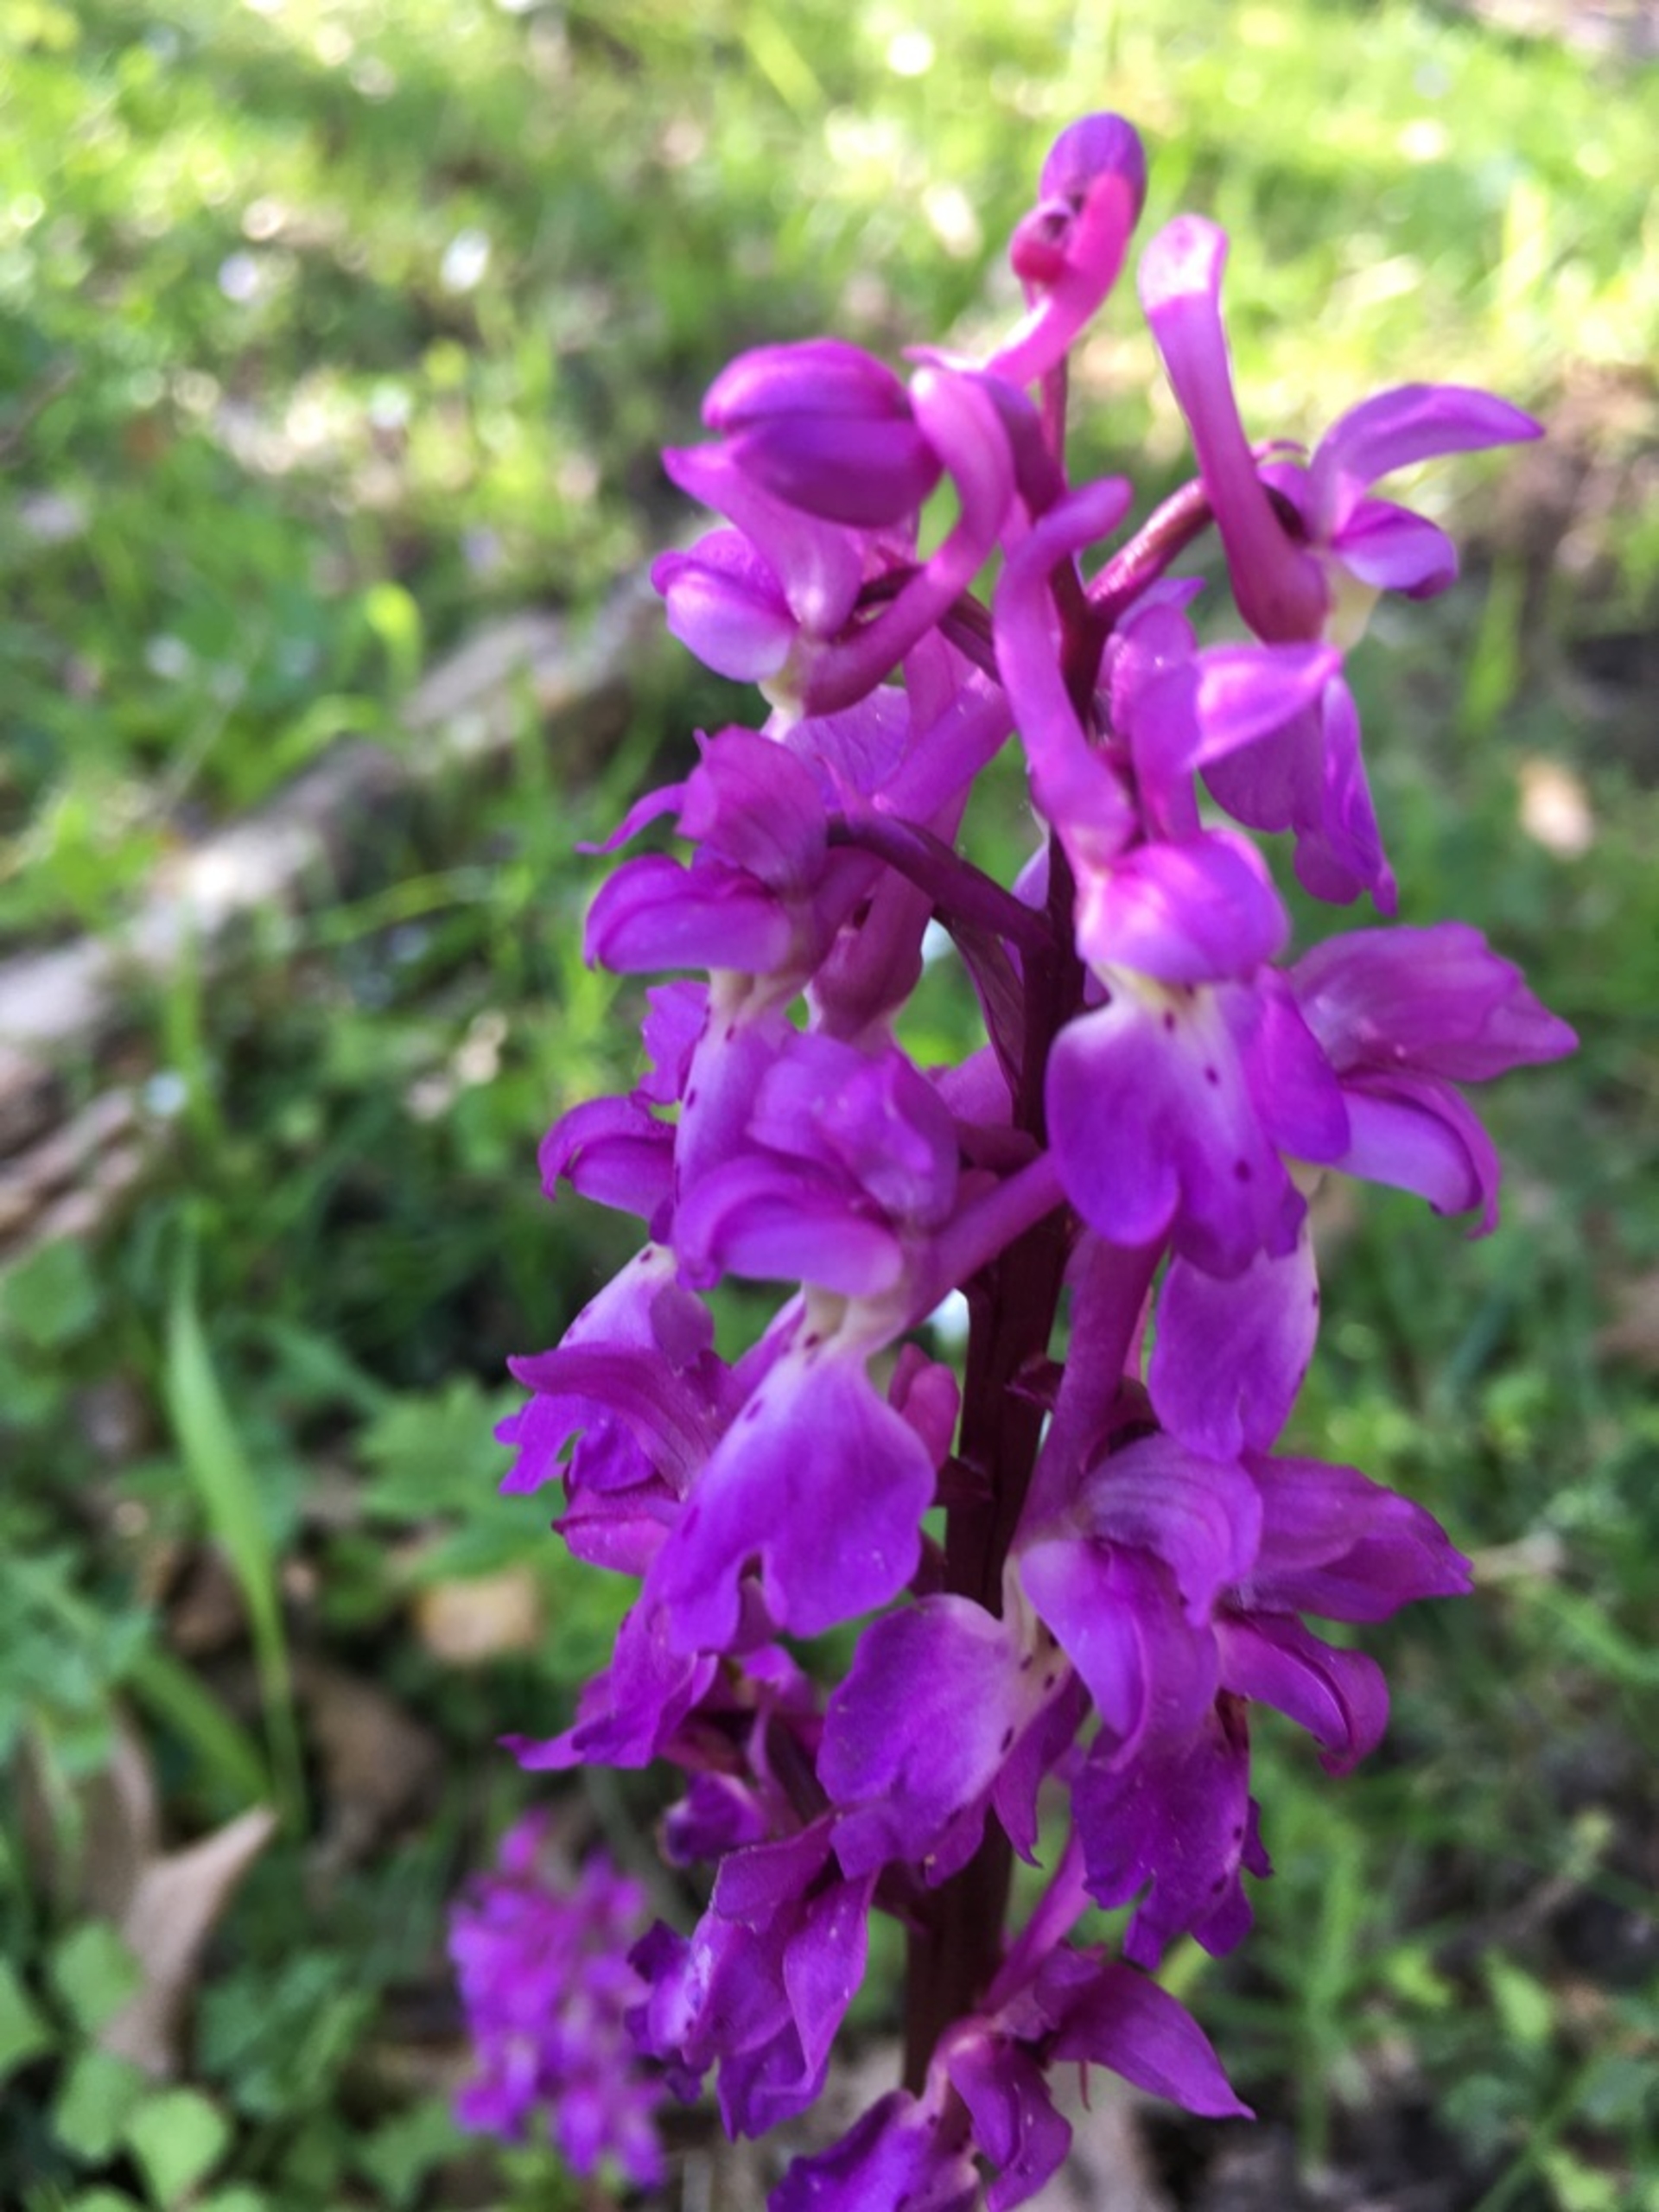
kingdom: Plantae
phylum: Tracheophyta
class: Liliopsida
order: Asparagales
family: Orchidaceae
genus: Orchis
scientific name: Orchis mascula
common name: Tyndakset gøgeurt
